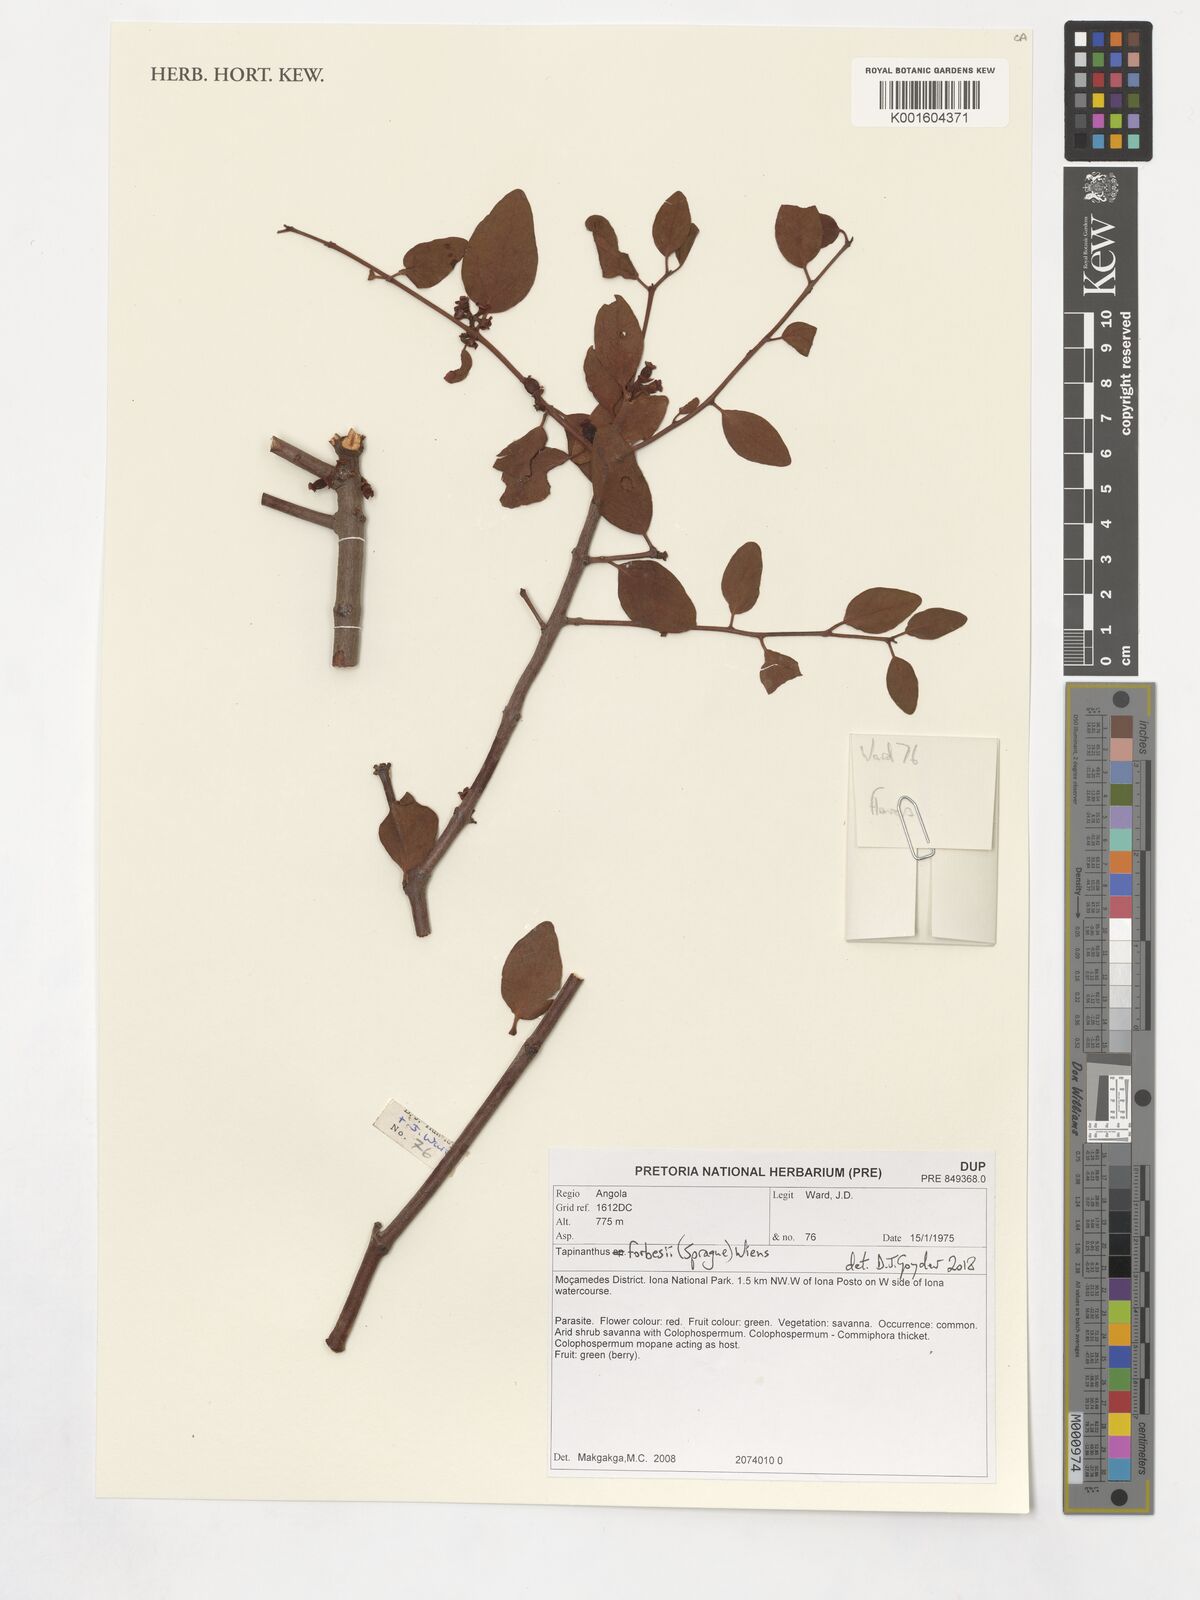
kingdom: Plantae
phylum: Tracheophyta
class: Magnoliopsida
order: Santalales
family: Loranthaceae
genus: Tapinanthus
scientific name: Tapinanthus forbesii
